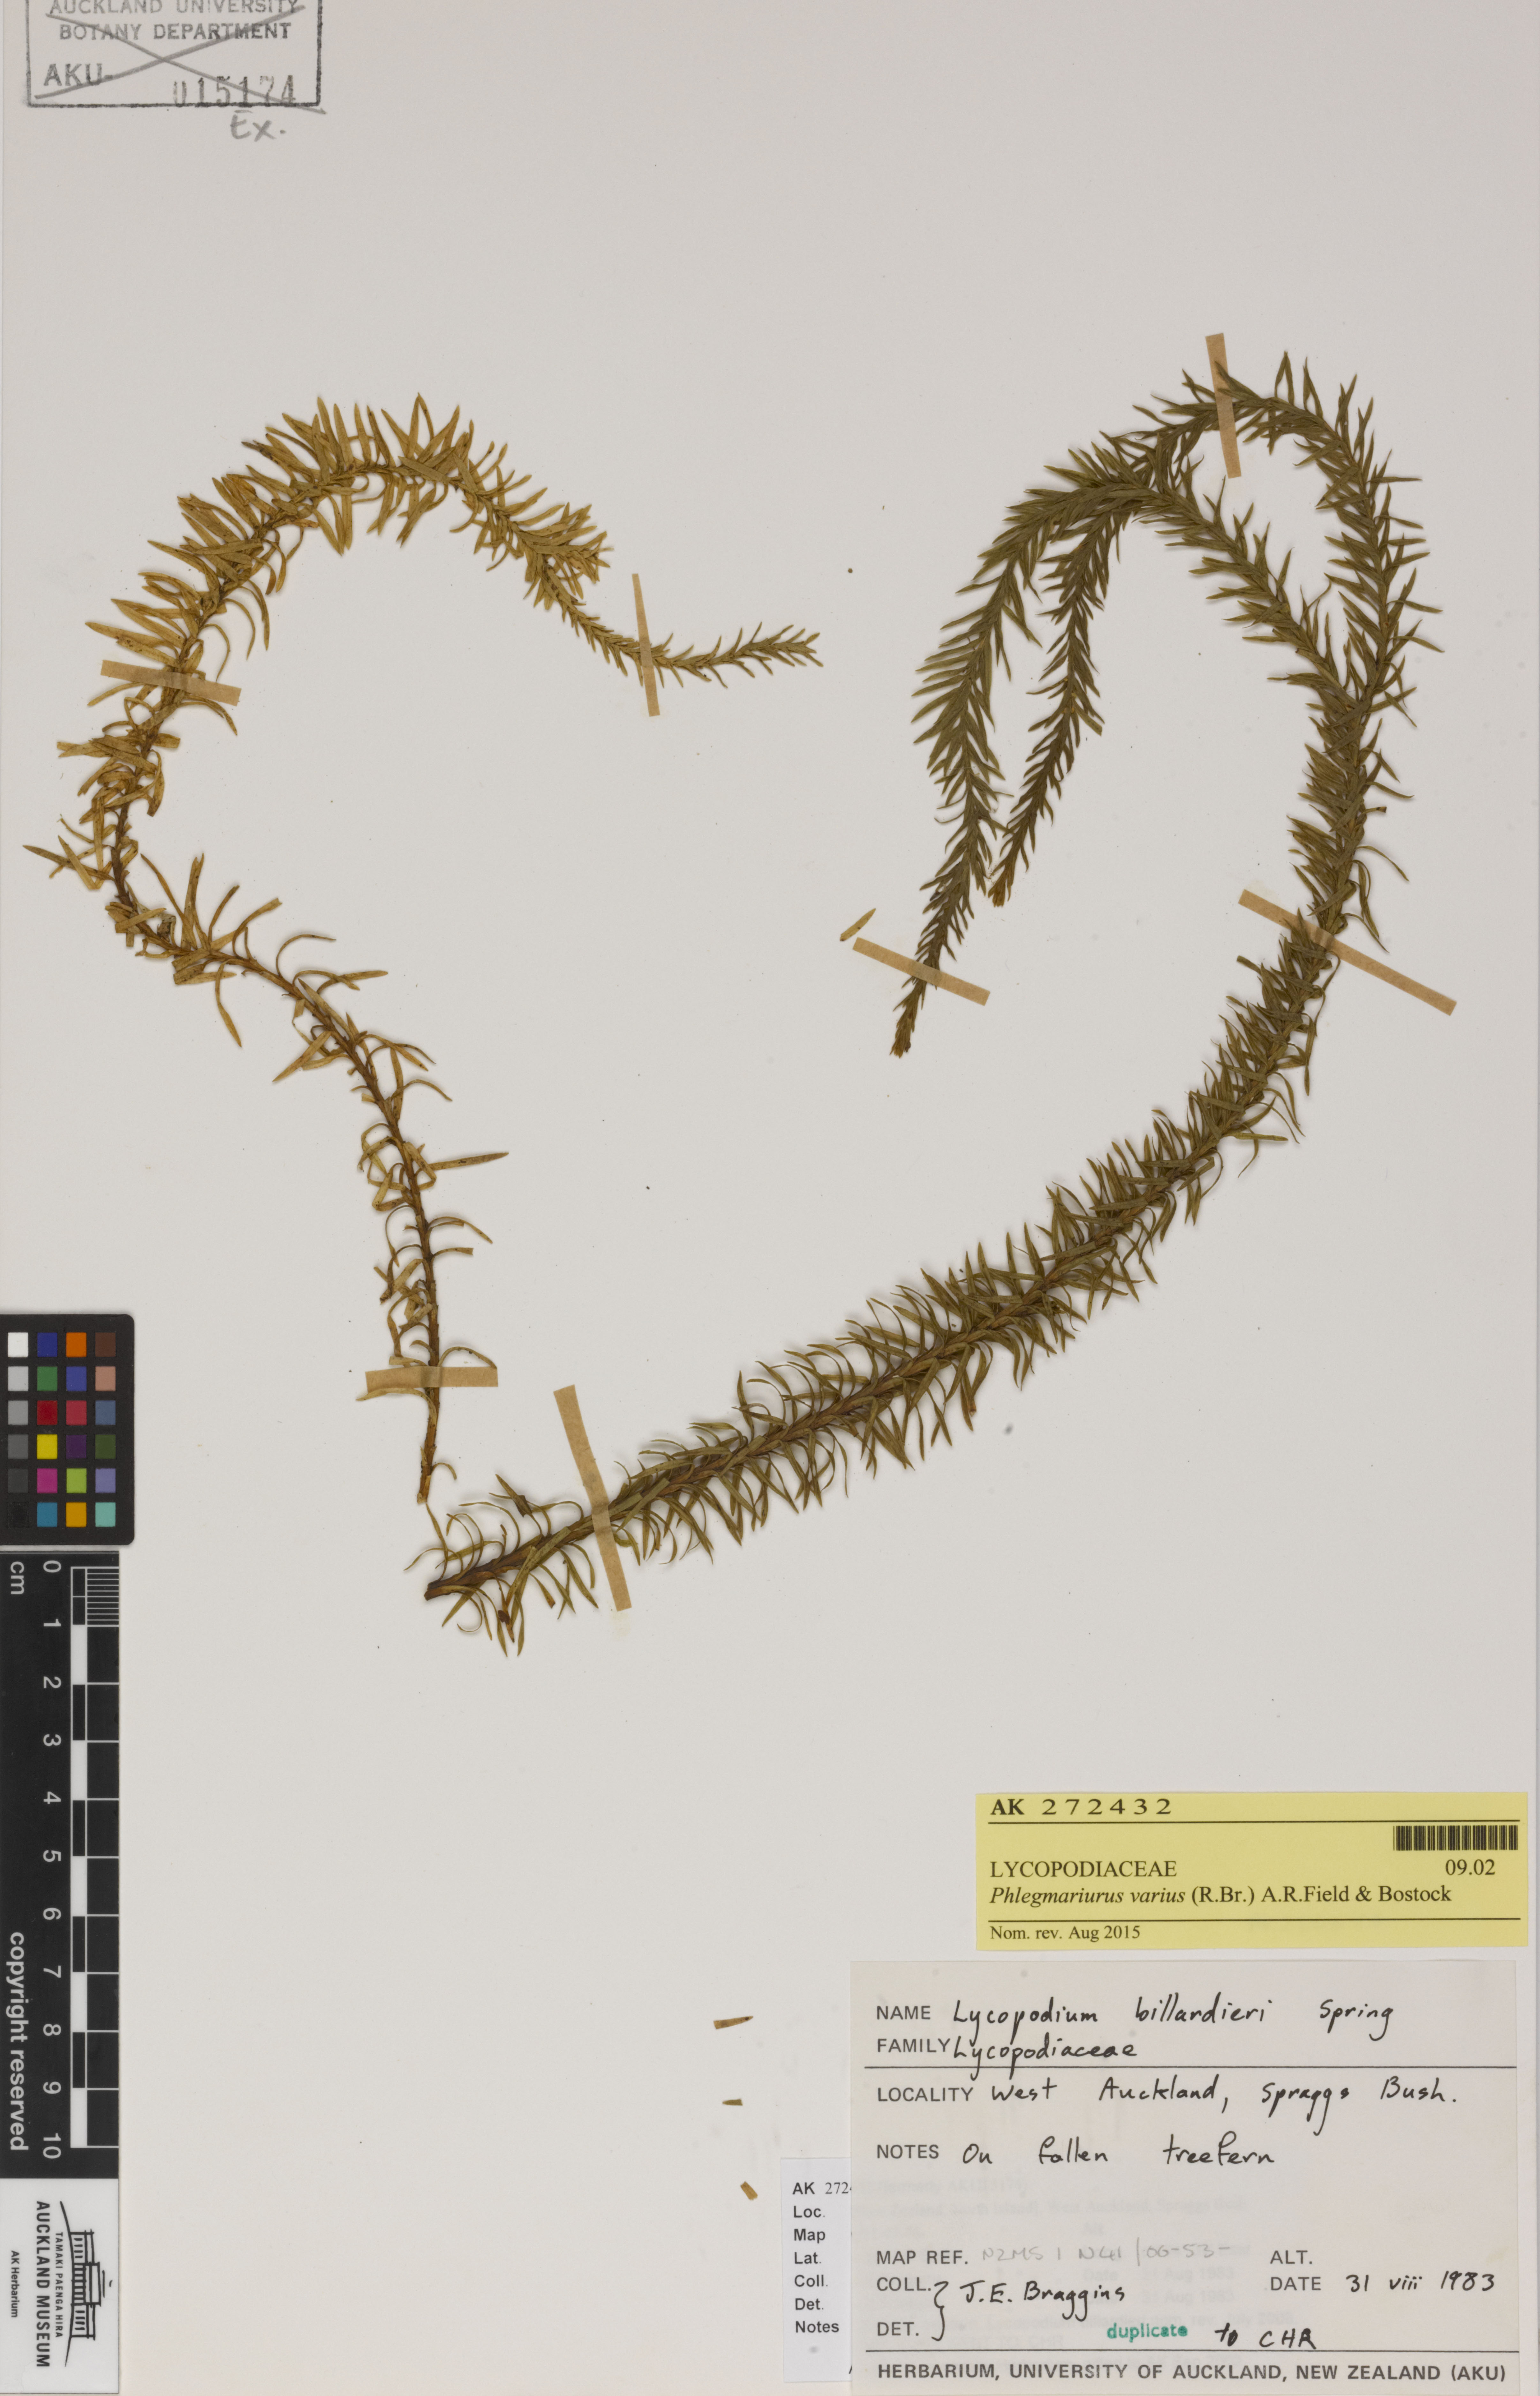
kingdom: Plantae
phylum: Tracheophyta
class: Lycopodiopsida
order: Lycopodiales
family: Lycopodiaceae
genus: Phlegmariurus
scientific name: Phlegmariurus varius
